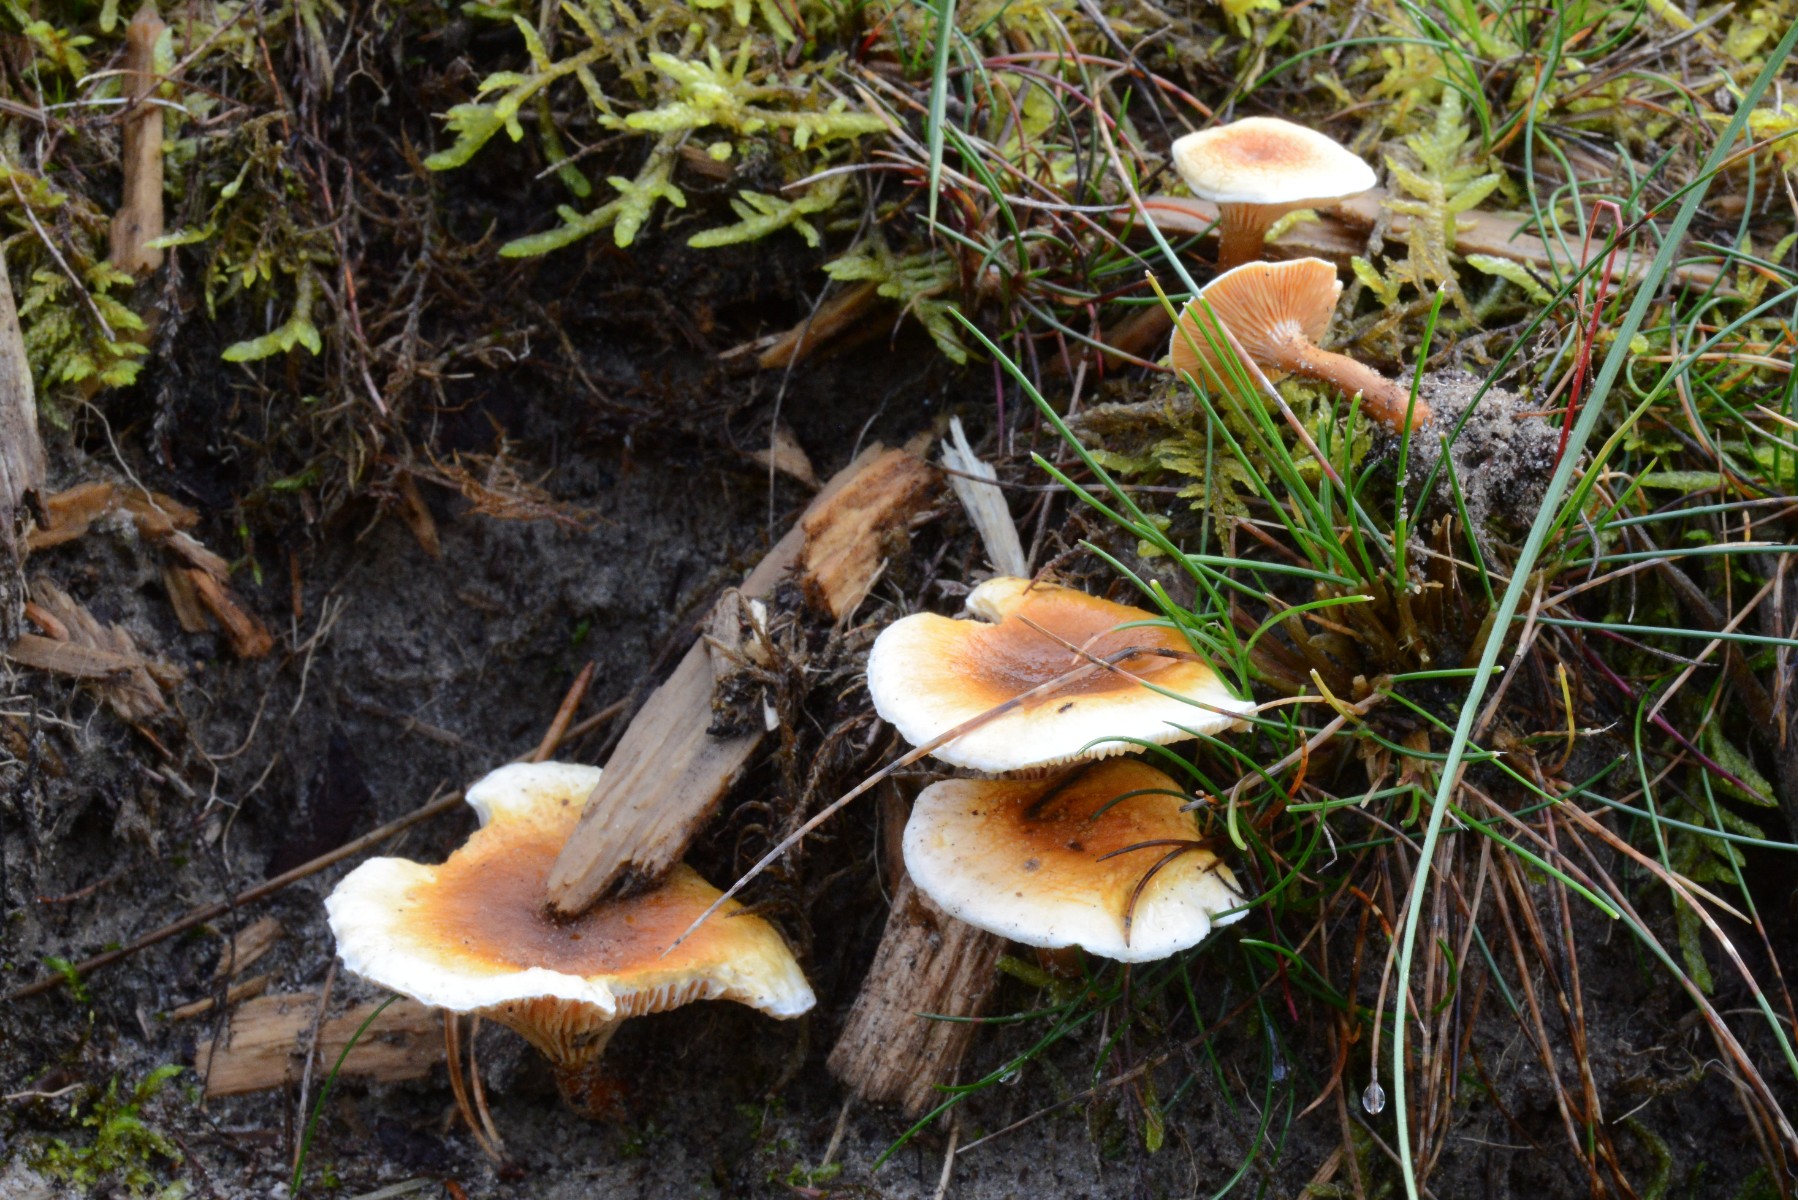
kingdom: Fungi
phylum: Basidiomycota
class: Agaricomycetes
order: Boletales
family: Hygrophoropsidaceae
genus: Hygrophoropsis
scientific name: Hygrophoropsis aurantiaca
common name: almindelig orangekantarel
